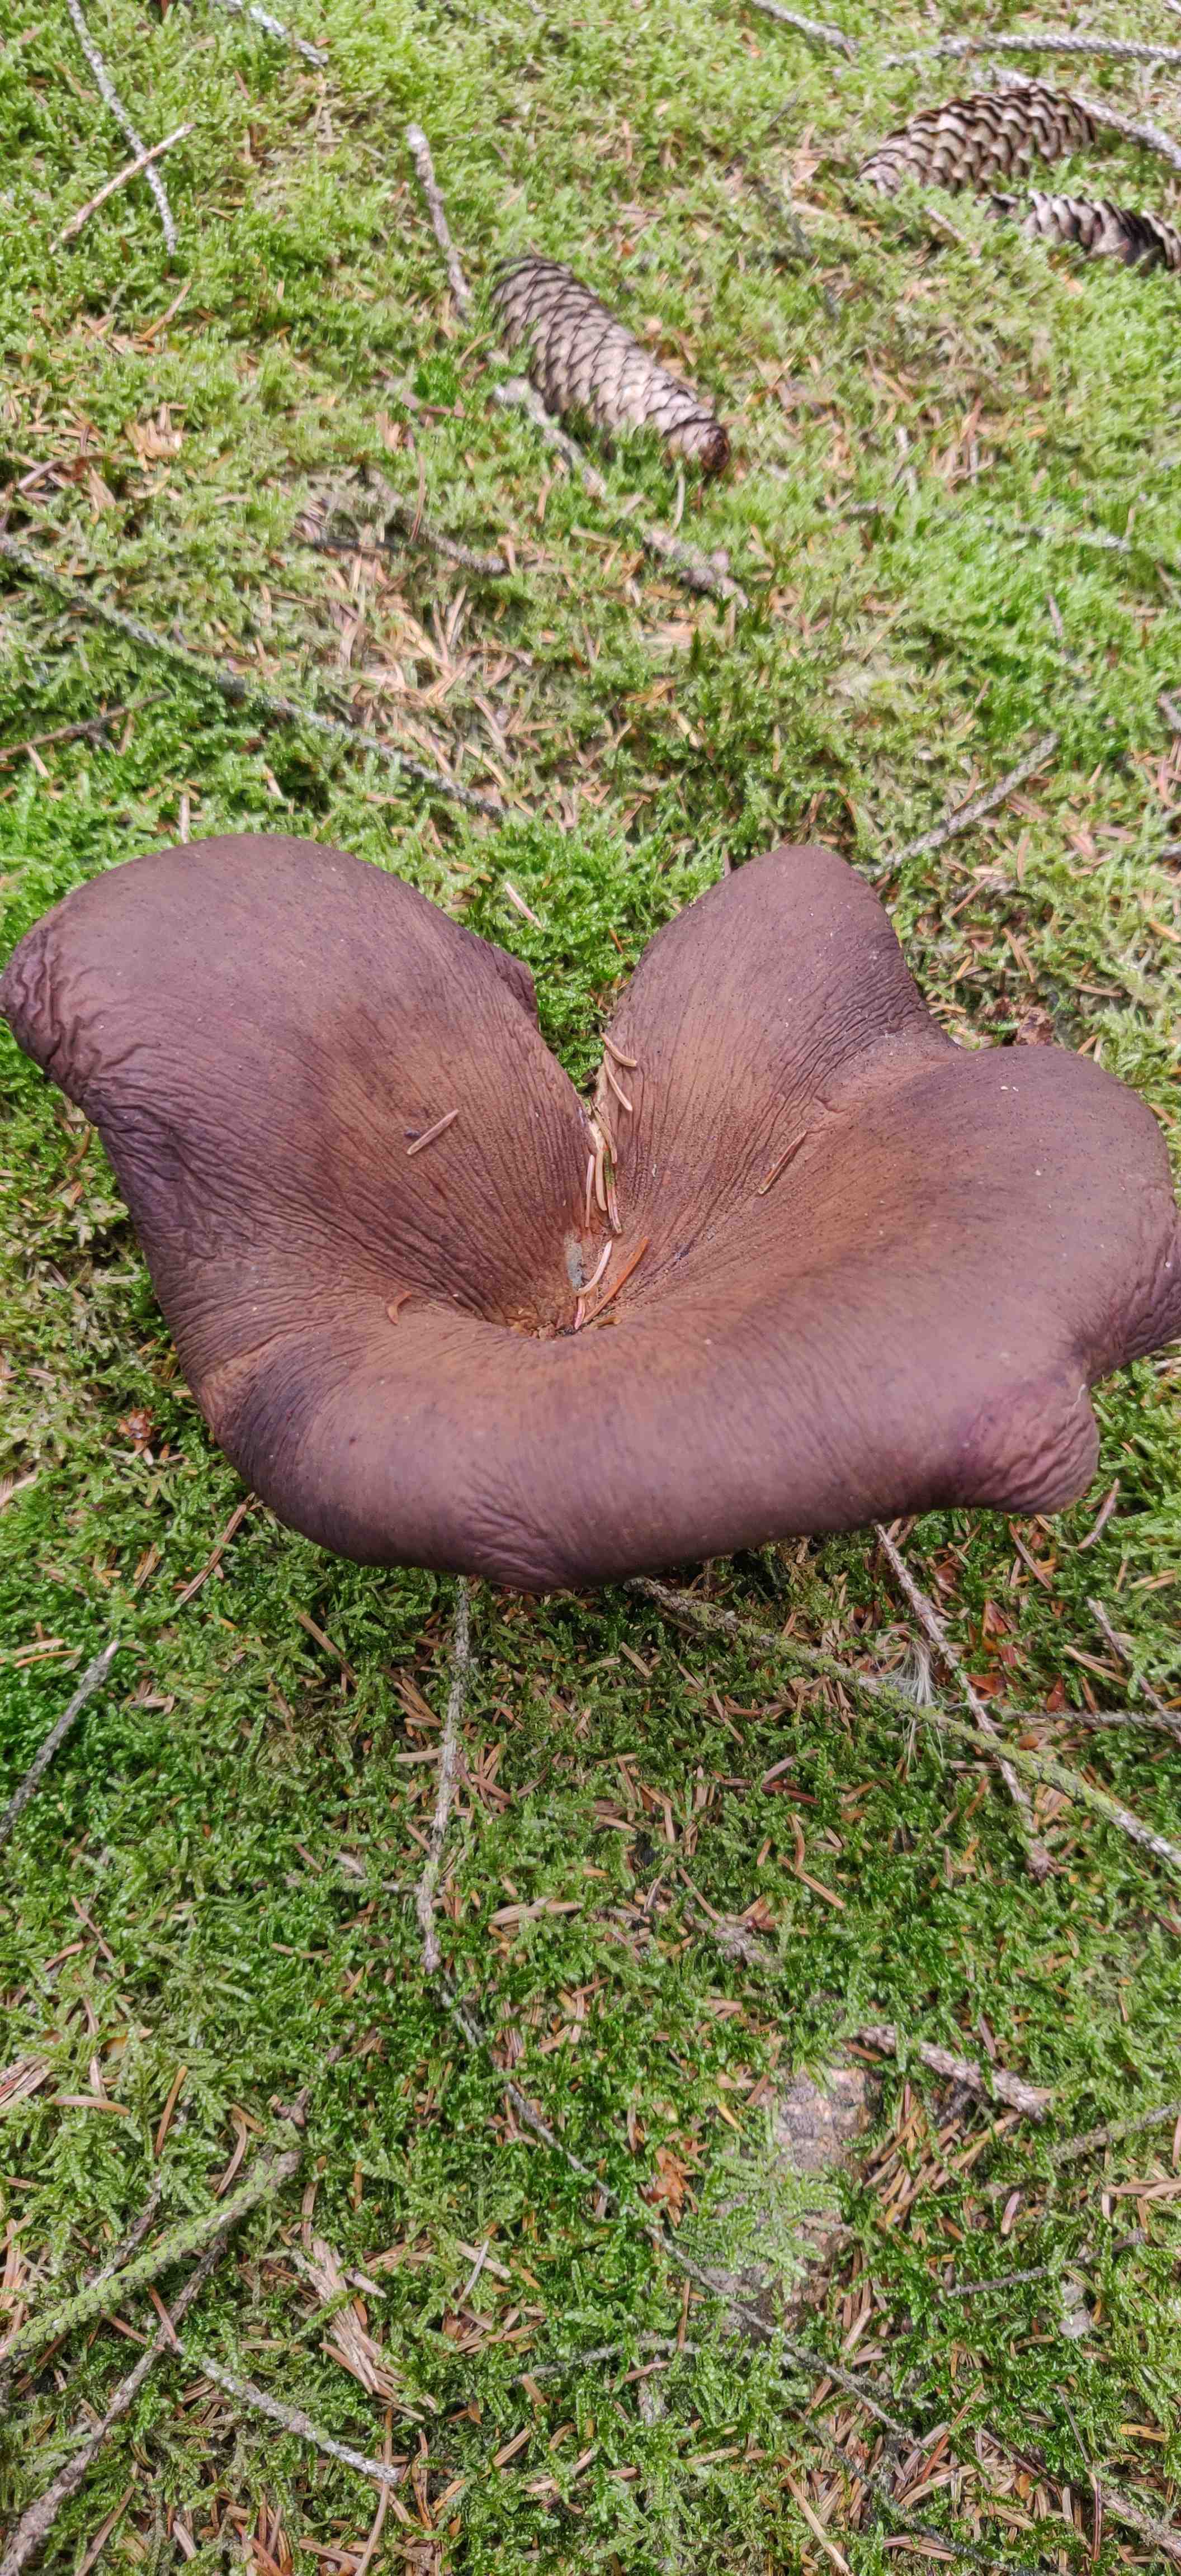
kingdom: Fungi
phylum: Basidiomycota
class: Agaricomycetes
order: Boletales
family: Tapinellaceae
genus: Tapinella
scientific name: Tapinella atrotomentosa
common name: sortfiltet viftesvamp
